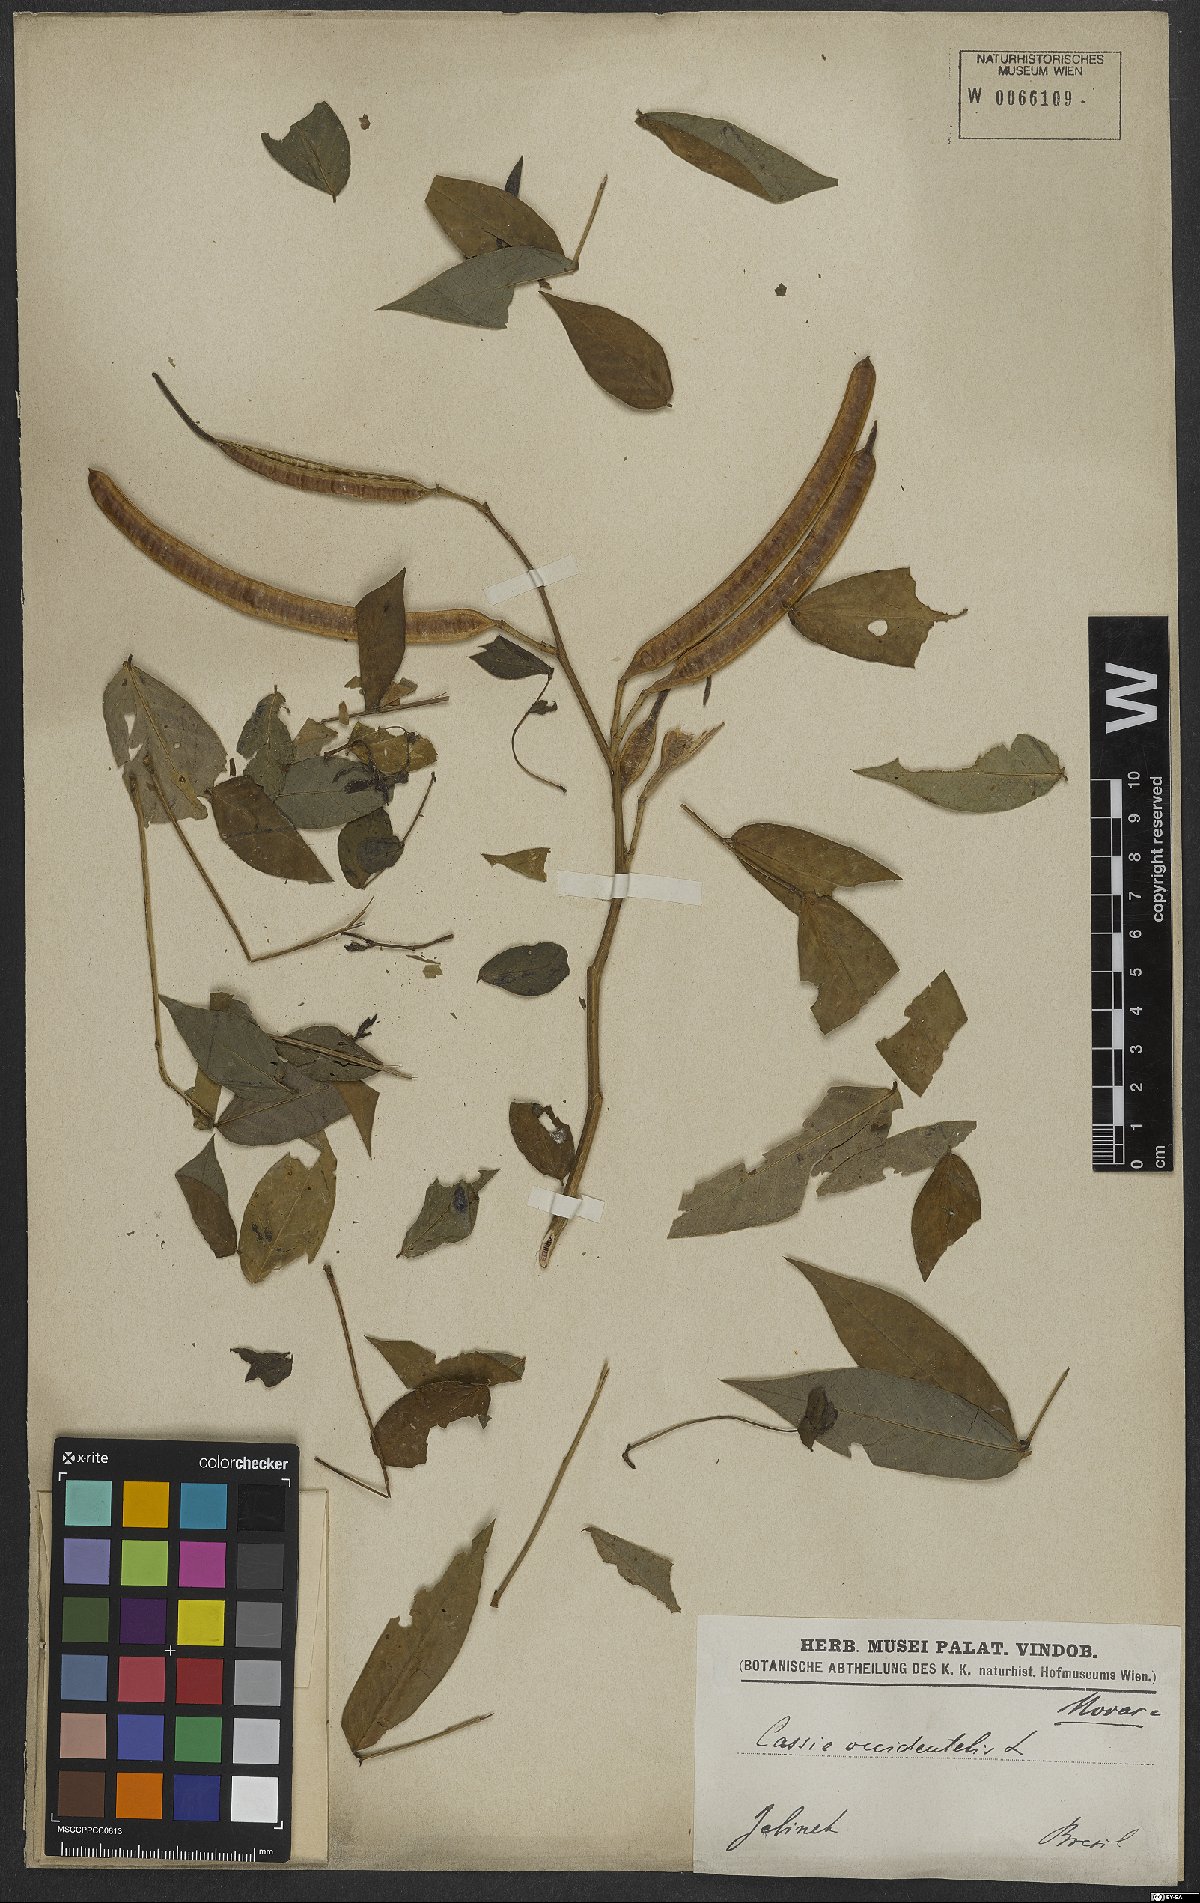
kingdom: Plantae
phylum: Tracheophyta
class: Magnoliopsida
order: Fabales
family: Fabaceae
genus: Senna
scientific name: Senna occidentalis
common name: Septicweed
